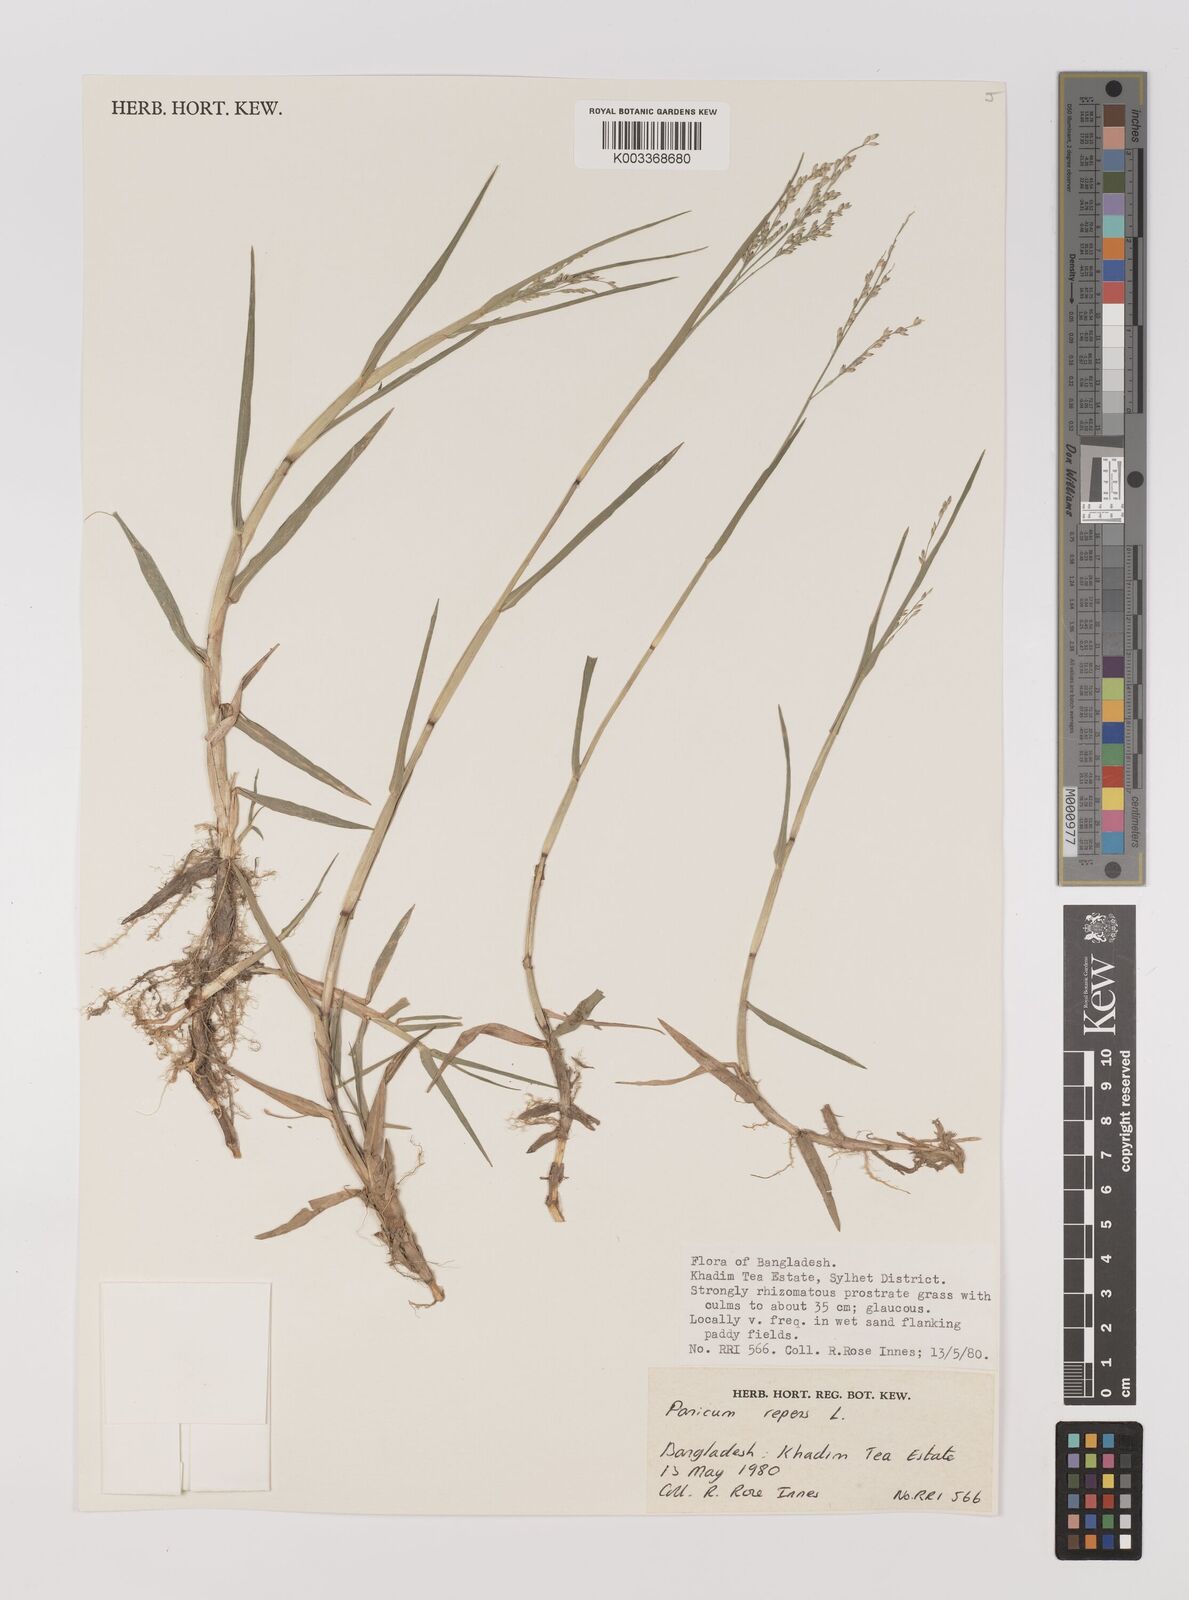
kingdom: Plantae
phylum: Tracheophyta
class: Liliopsida
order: Poales
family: Poaceae
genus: Panicum
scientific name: Panicum repens
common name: Torpedo grass
